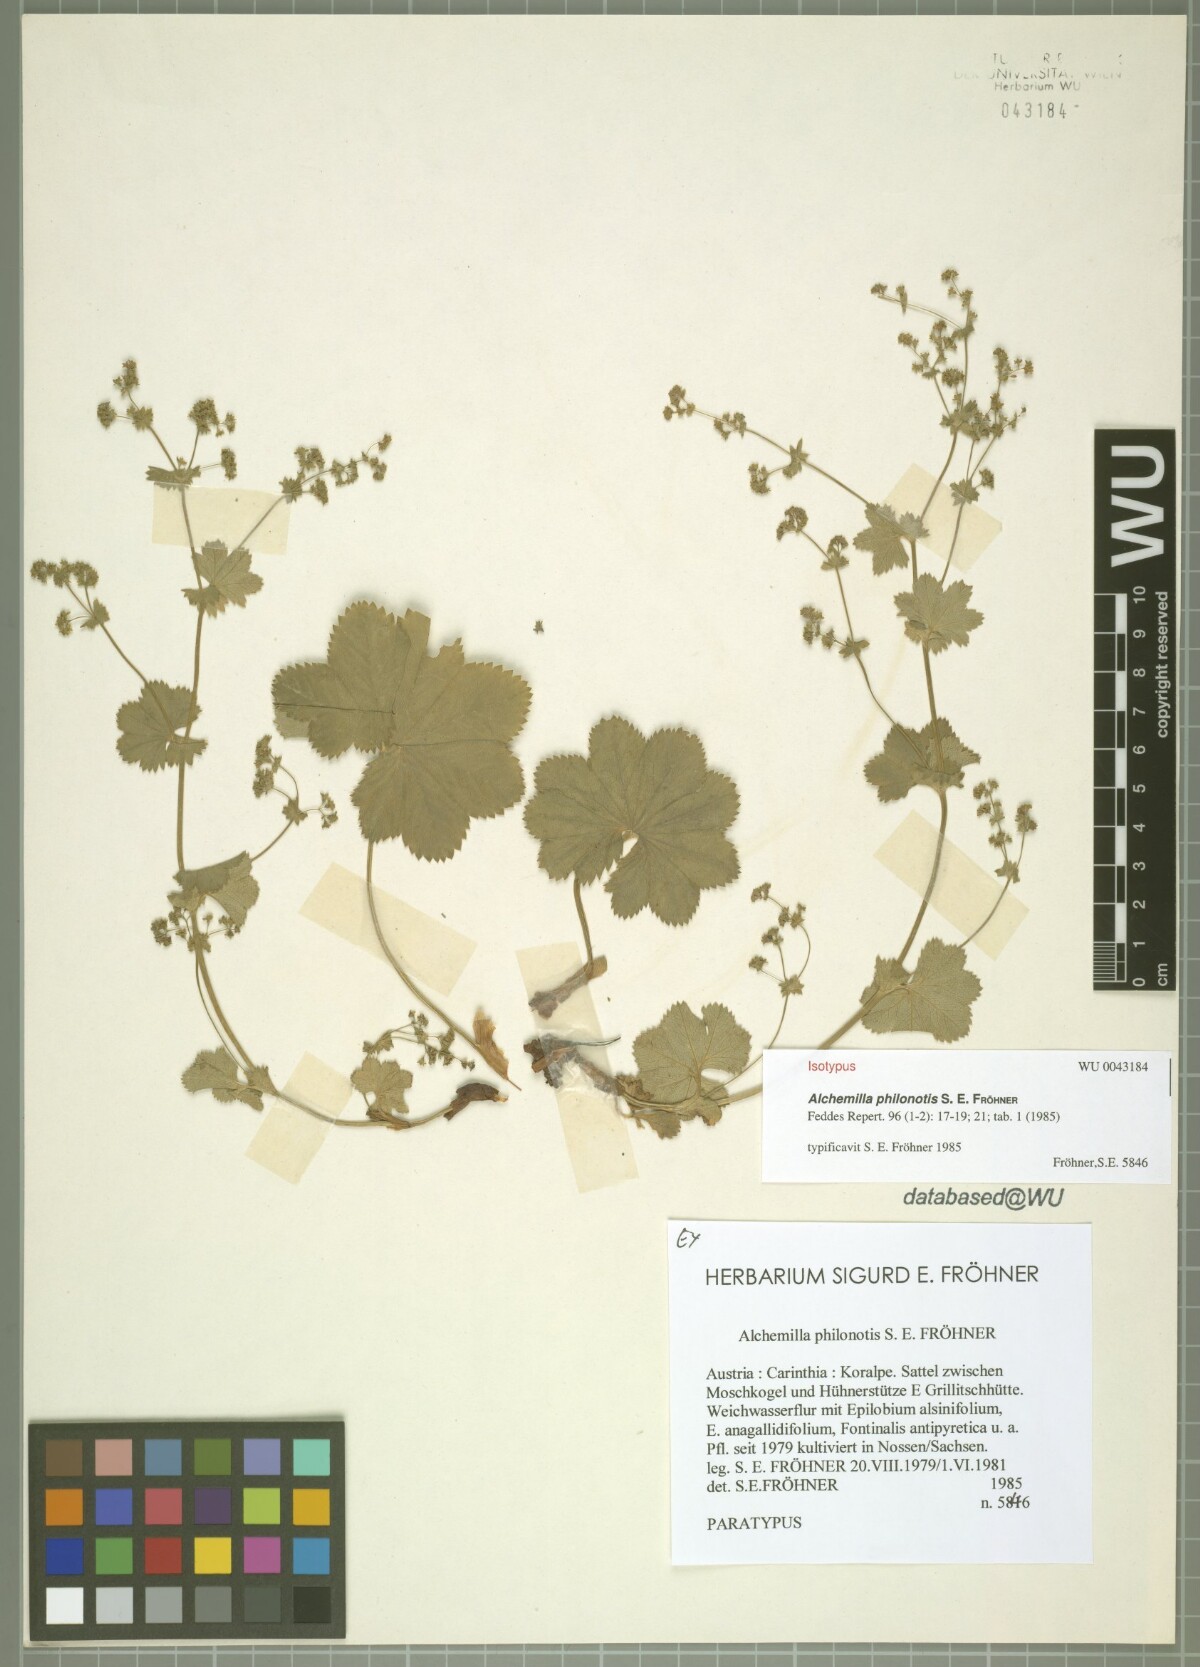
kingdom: Plantae
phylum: Tracheophyta
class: Magnoliopsida
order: Rosales
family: Rosaceae
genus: Alchemilla
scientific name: Alchemilla philonotis
